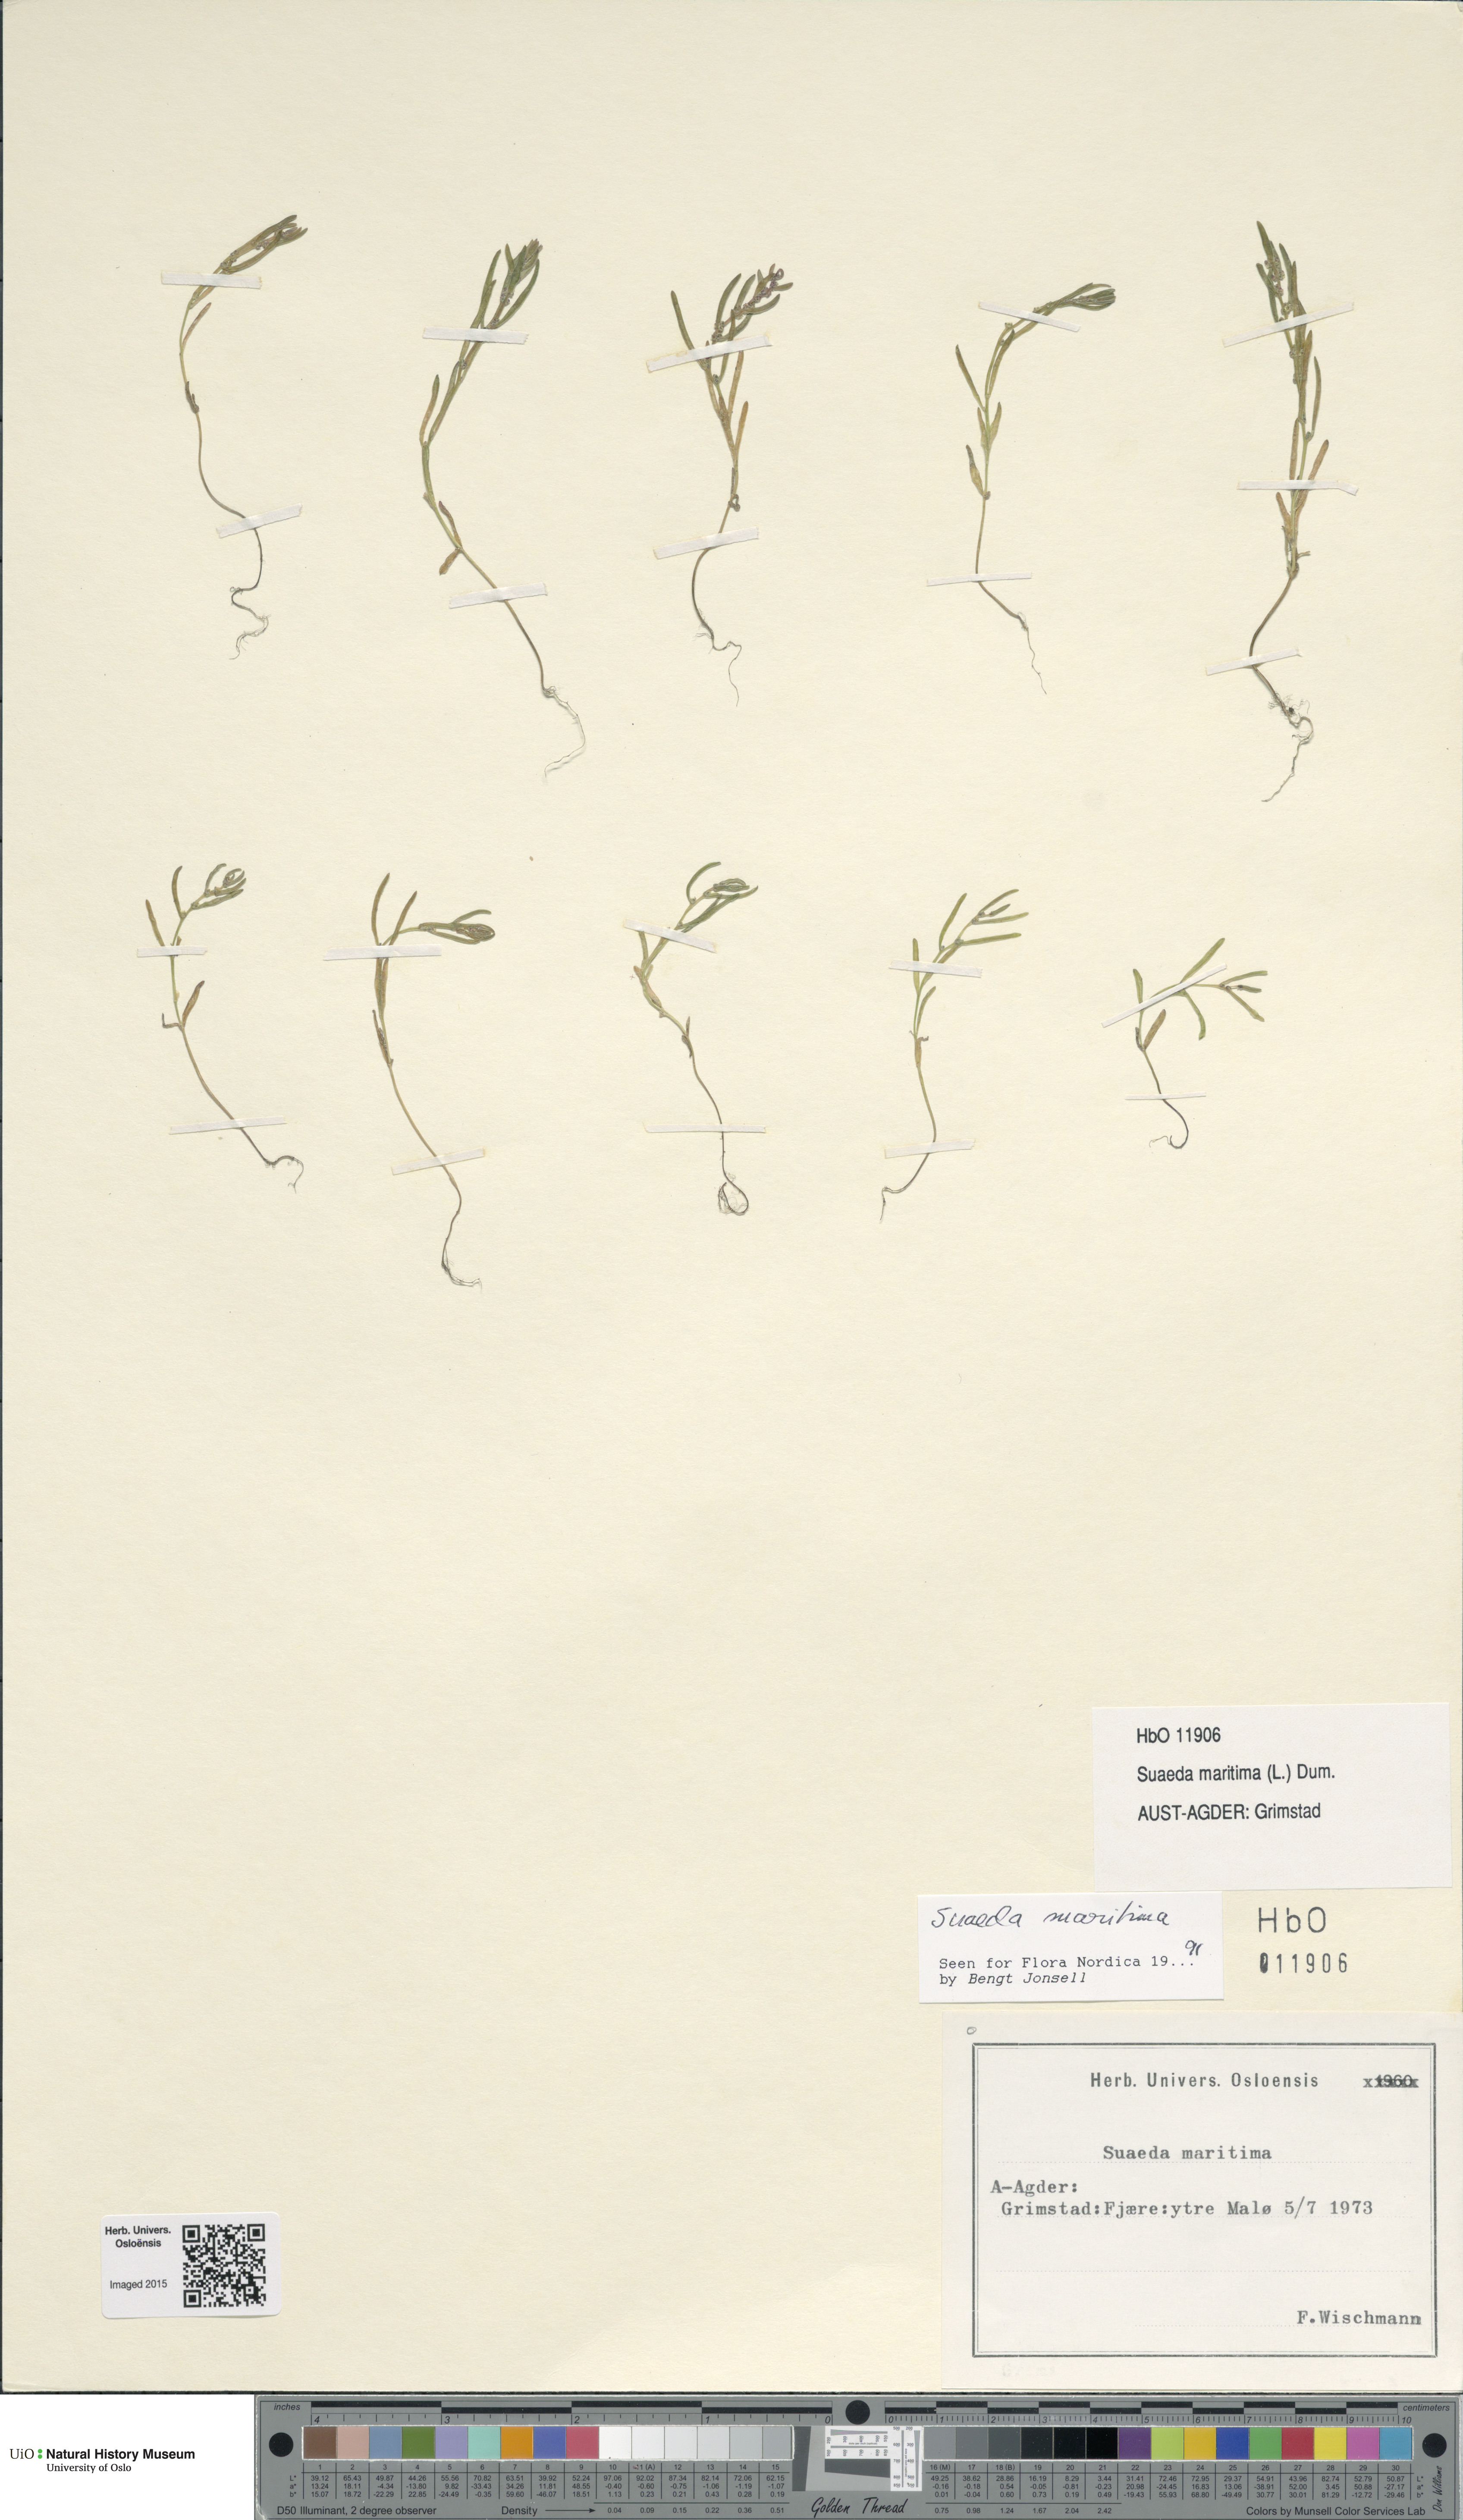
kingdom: Plantae
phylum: Tracheophyta
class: Magnoliopsida
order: Caryophyllales
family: Amaranthaceae
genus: Suaeda
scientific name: Suaeda maritima
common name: Annual sea-blite
